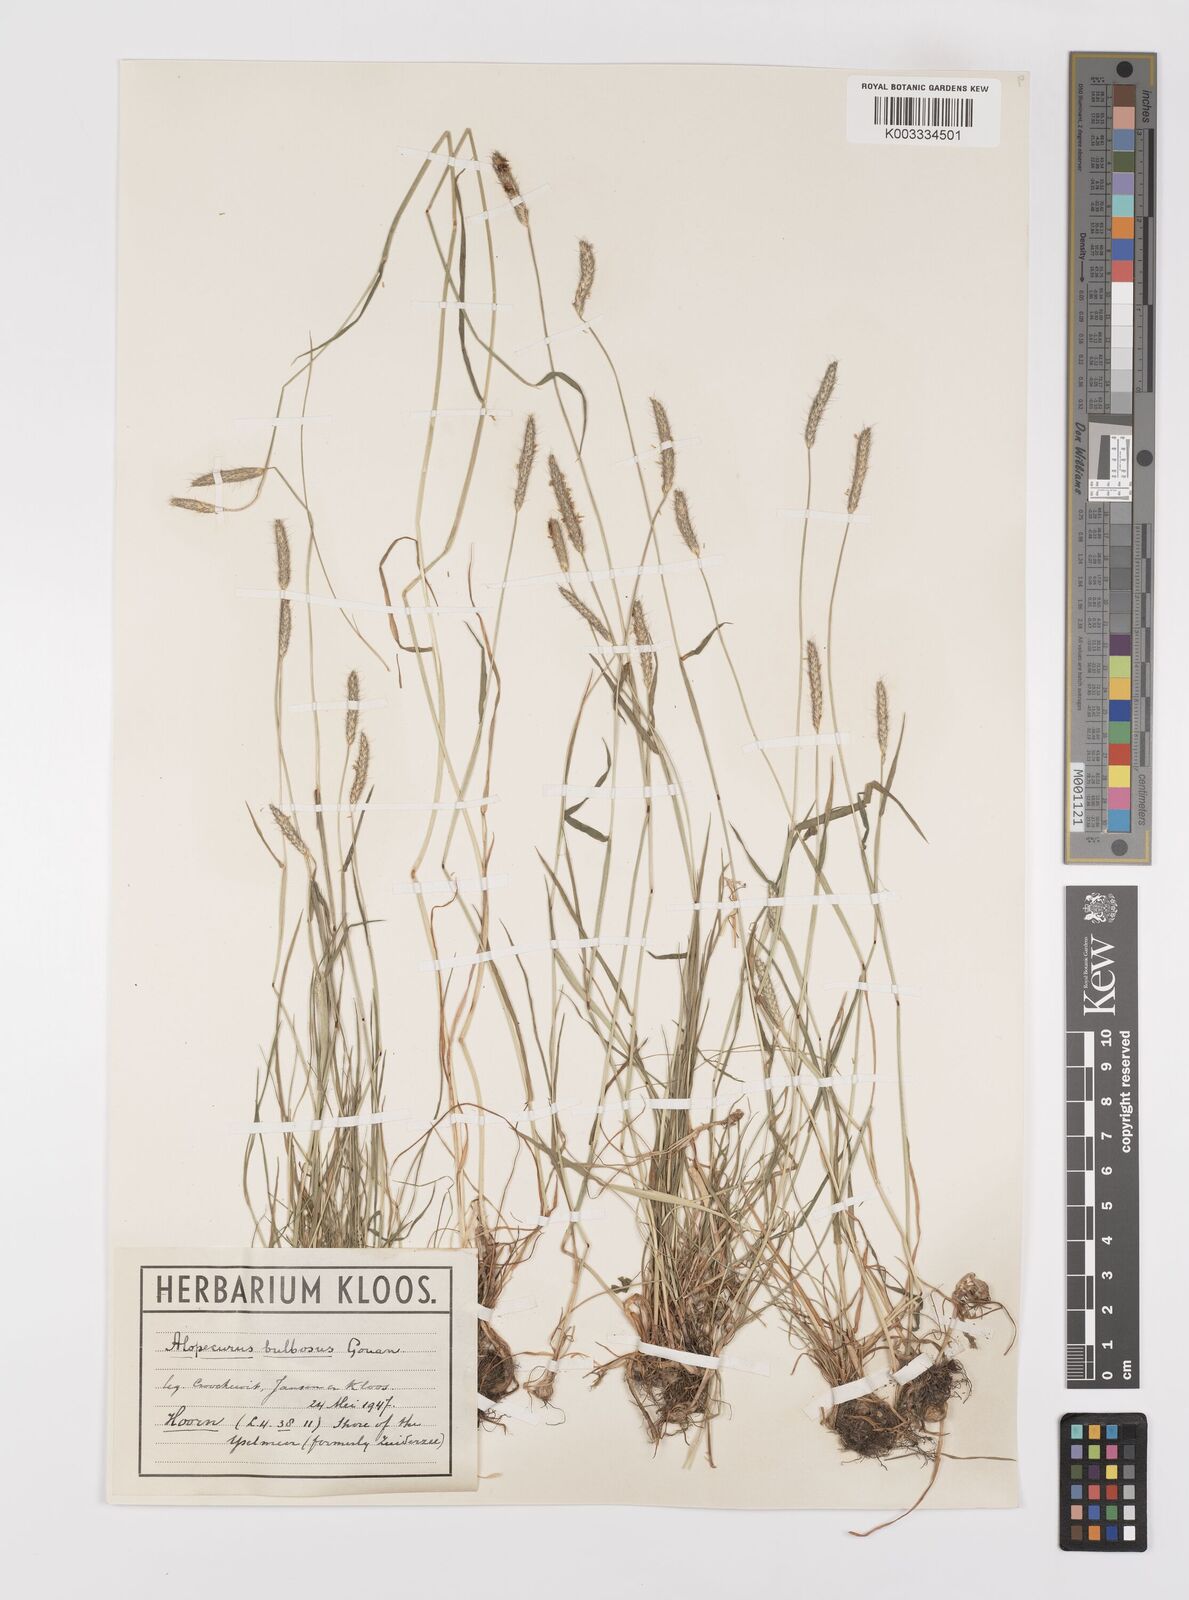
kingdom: Plantae
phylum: Tracheophyta
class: Liliopsida
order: Poales
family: Poaceae
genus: Alopecurus
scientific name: Alopecurus bulbosus
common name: Bulbous foxtail
